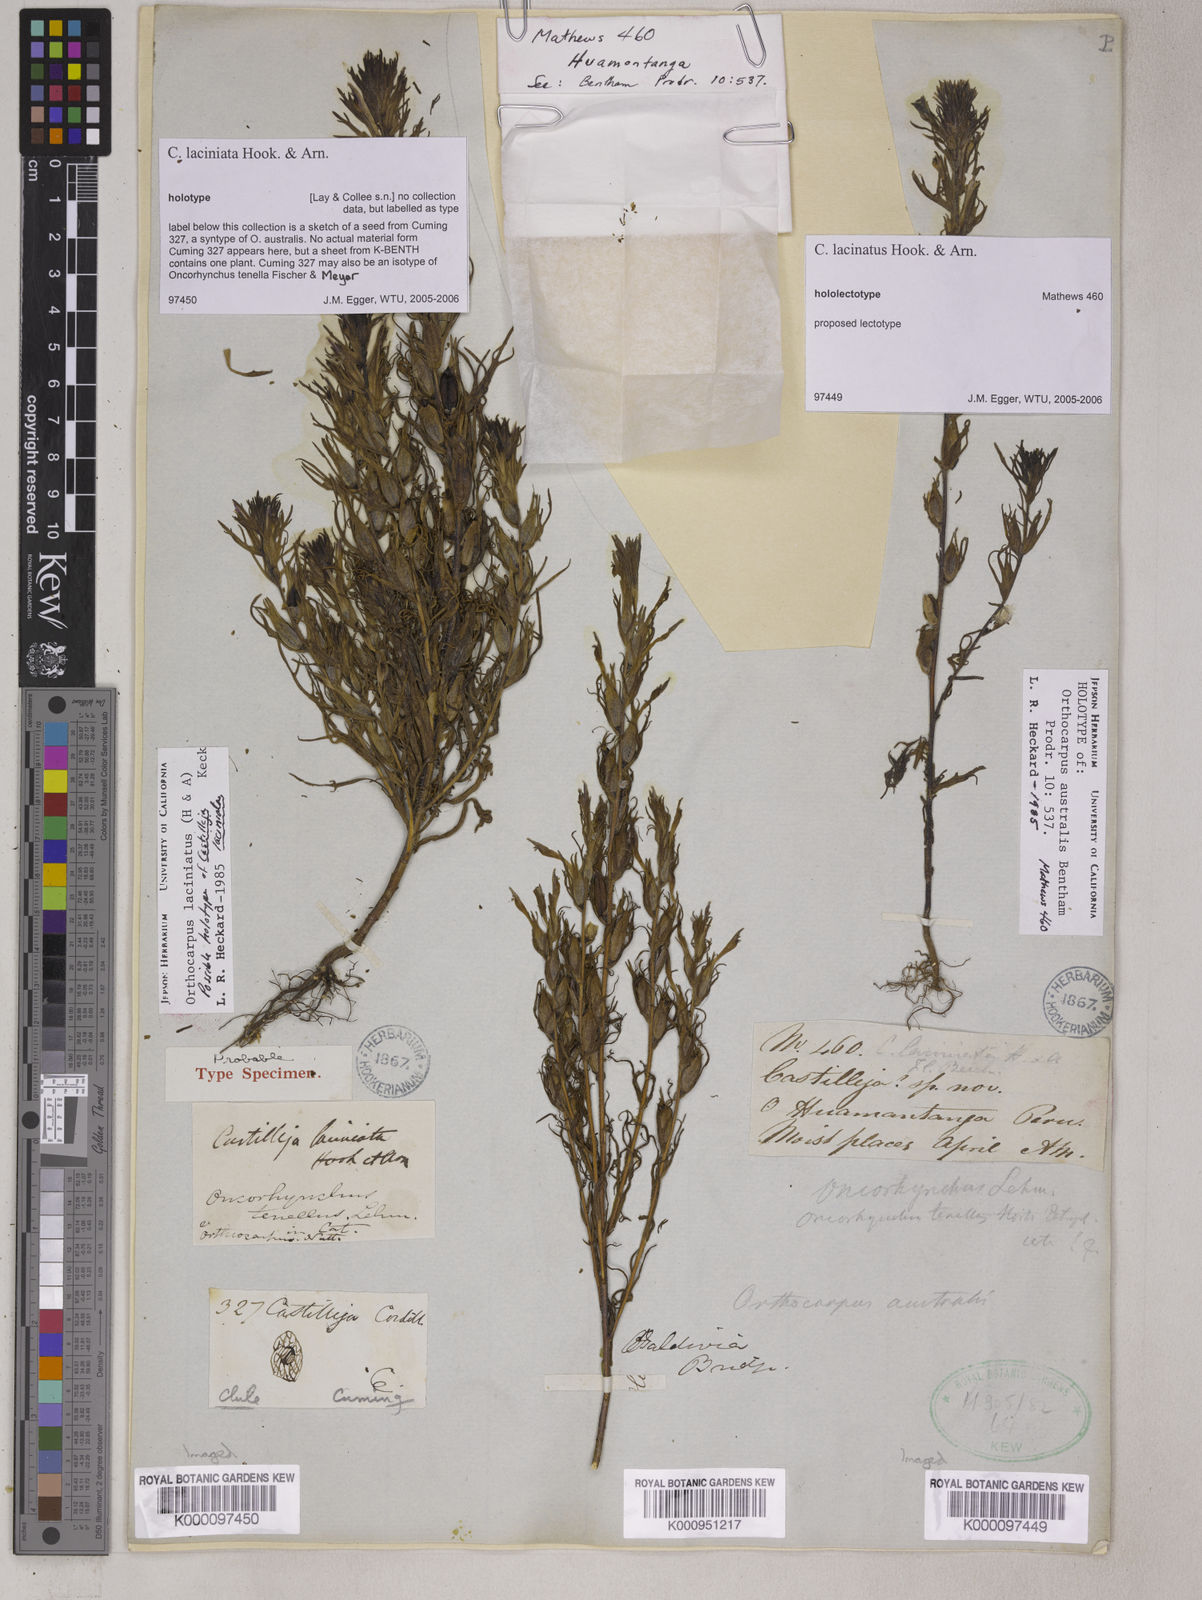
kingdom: Plantae
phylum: Tracheophyta
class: Magnoliopsida
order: Lamiales
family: Orobanchaceae
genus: Castilleja
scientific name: Castilleja
